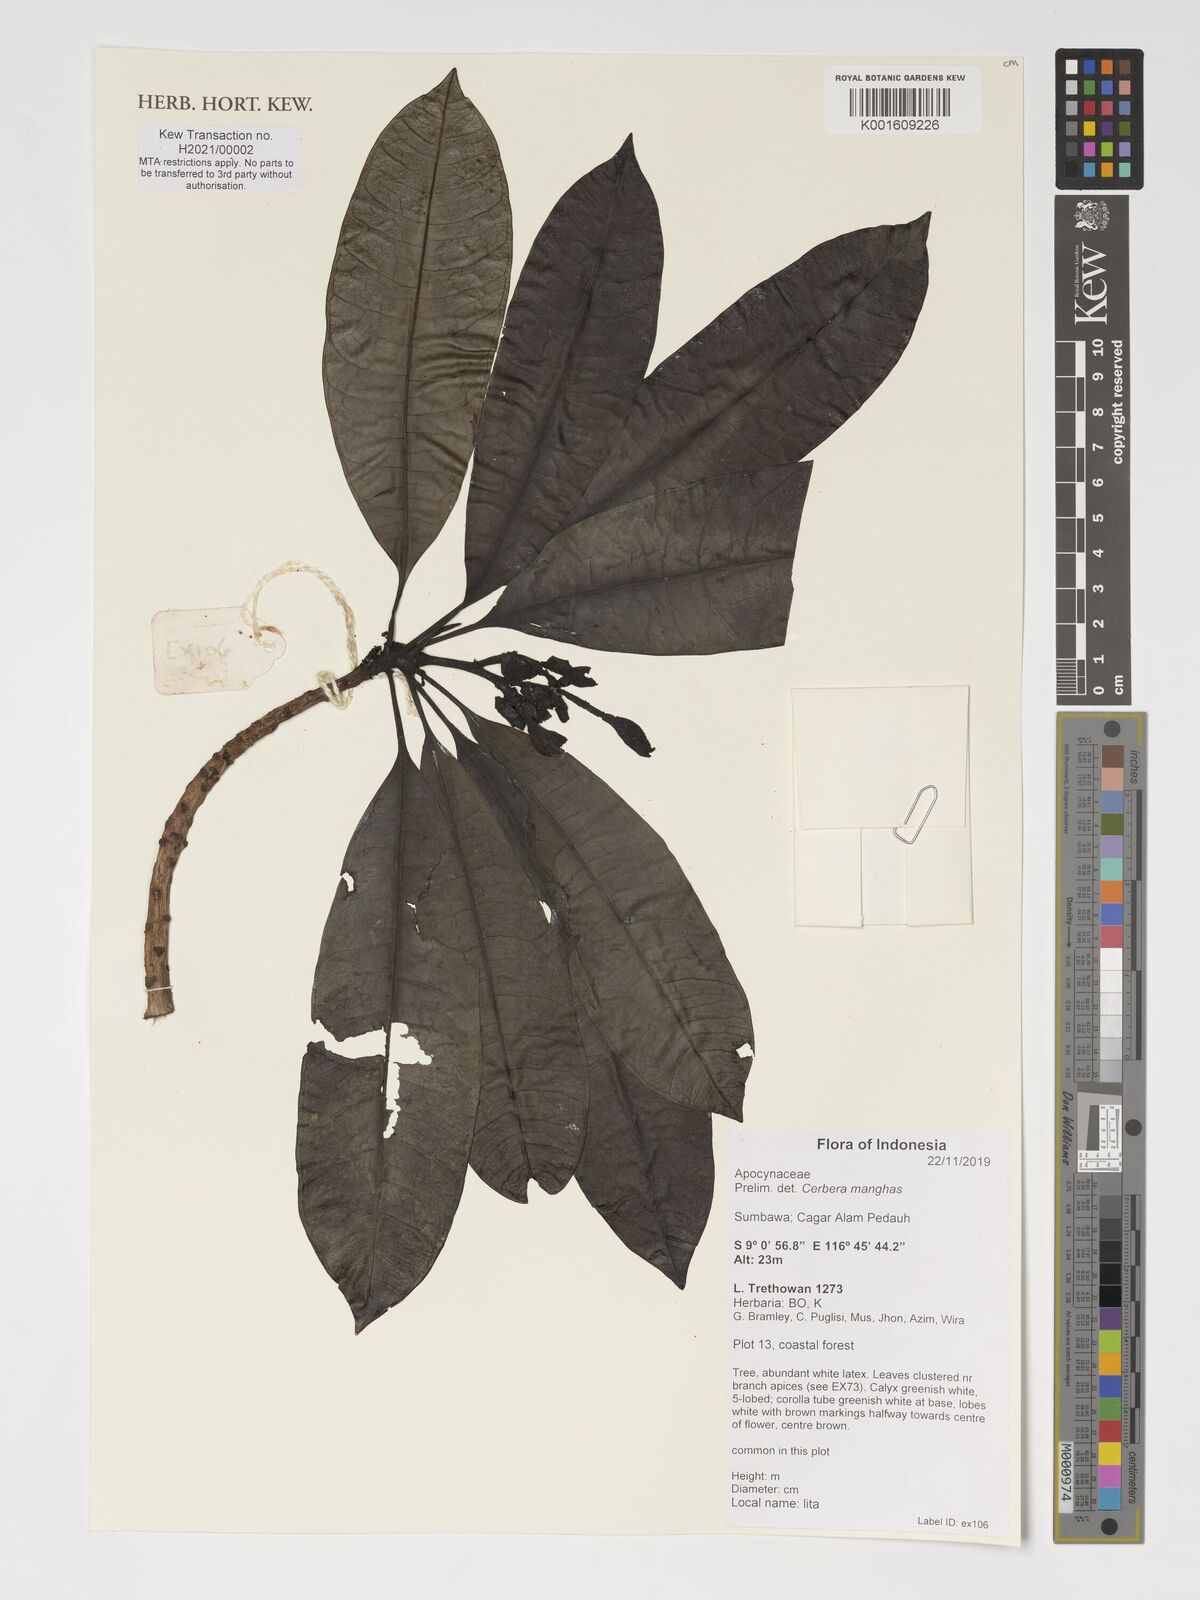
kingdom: Plantae
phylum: Tracheophyta
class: Magnoliopsida
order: Gentianales
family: Apocynaceae
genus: Cerbera
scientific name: Cerbera manghas
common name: Reva
